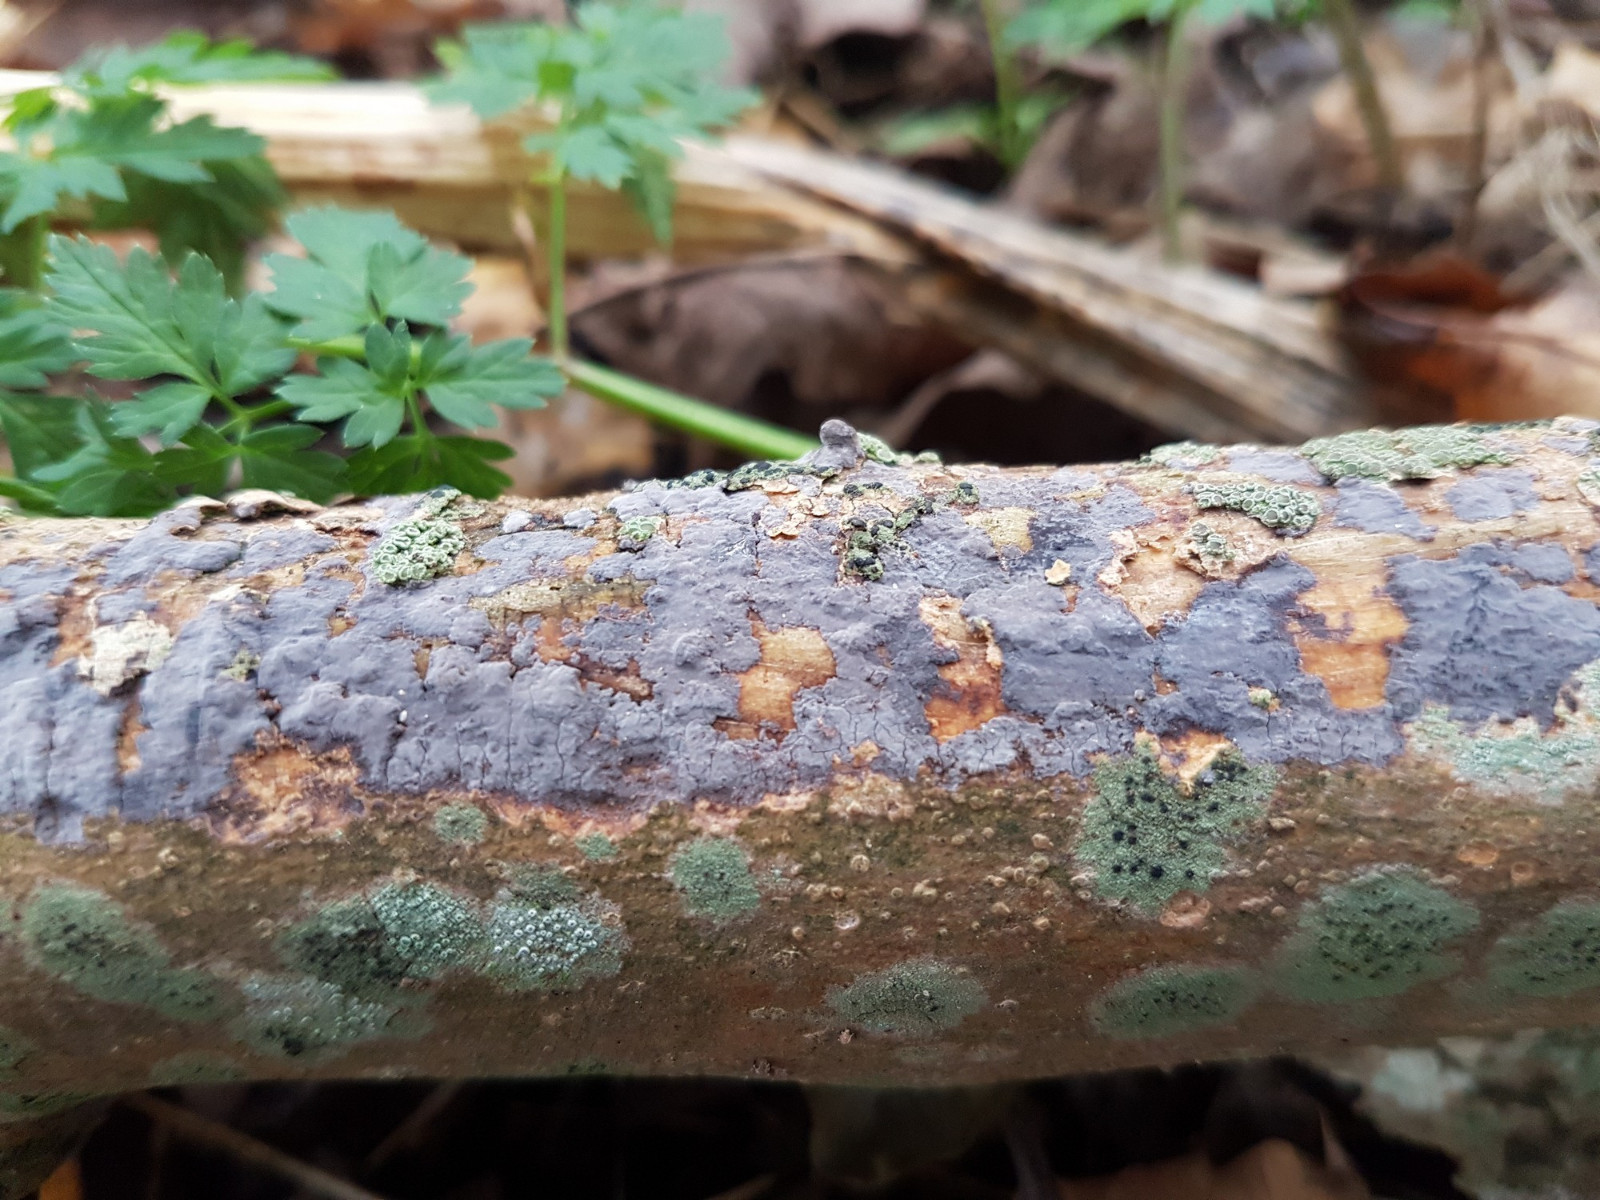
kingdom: Fungi
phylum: Basidiomycota
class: Agaricomycetes
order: Russulales
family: Peniophoraceae
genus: Peniophora
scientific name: Peniophora
